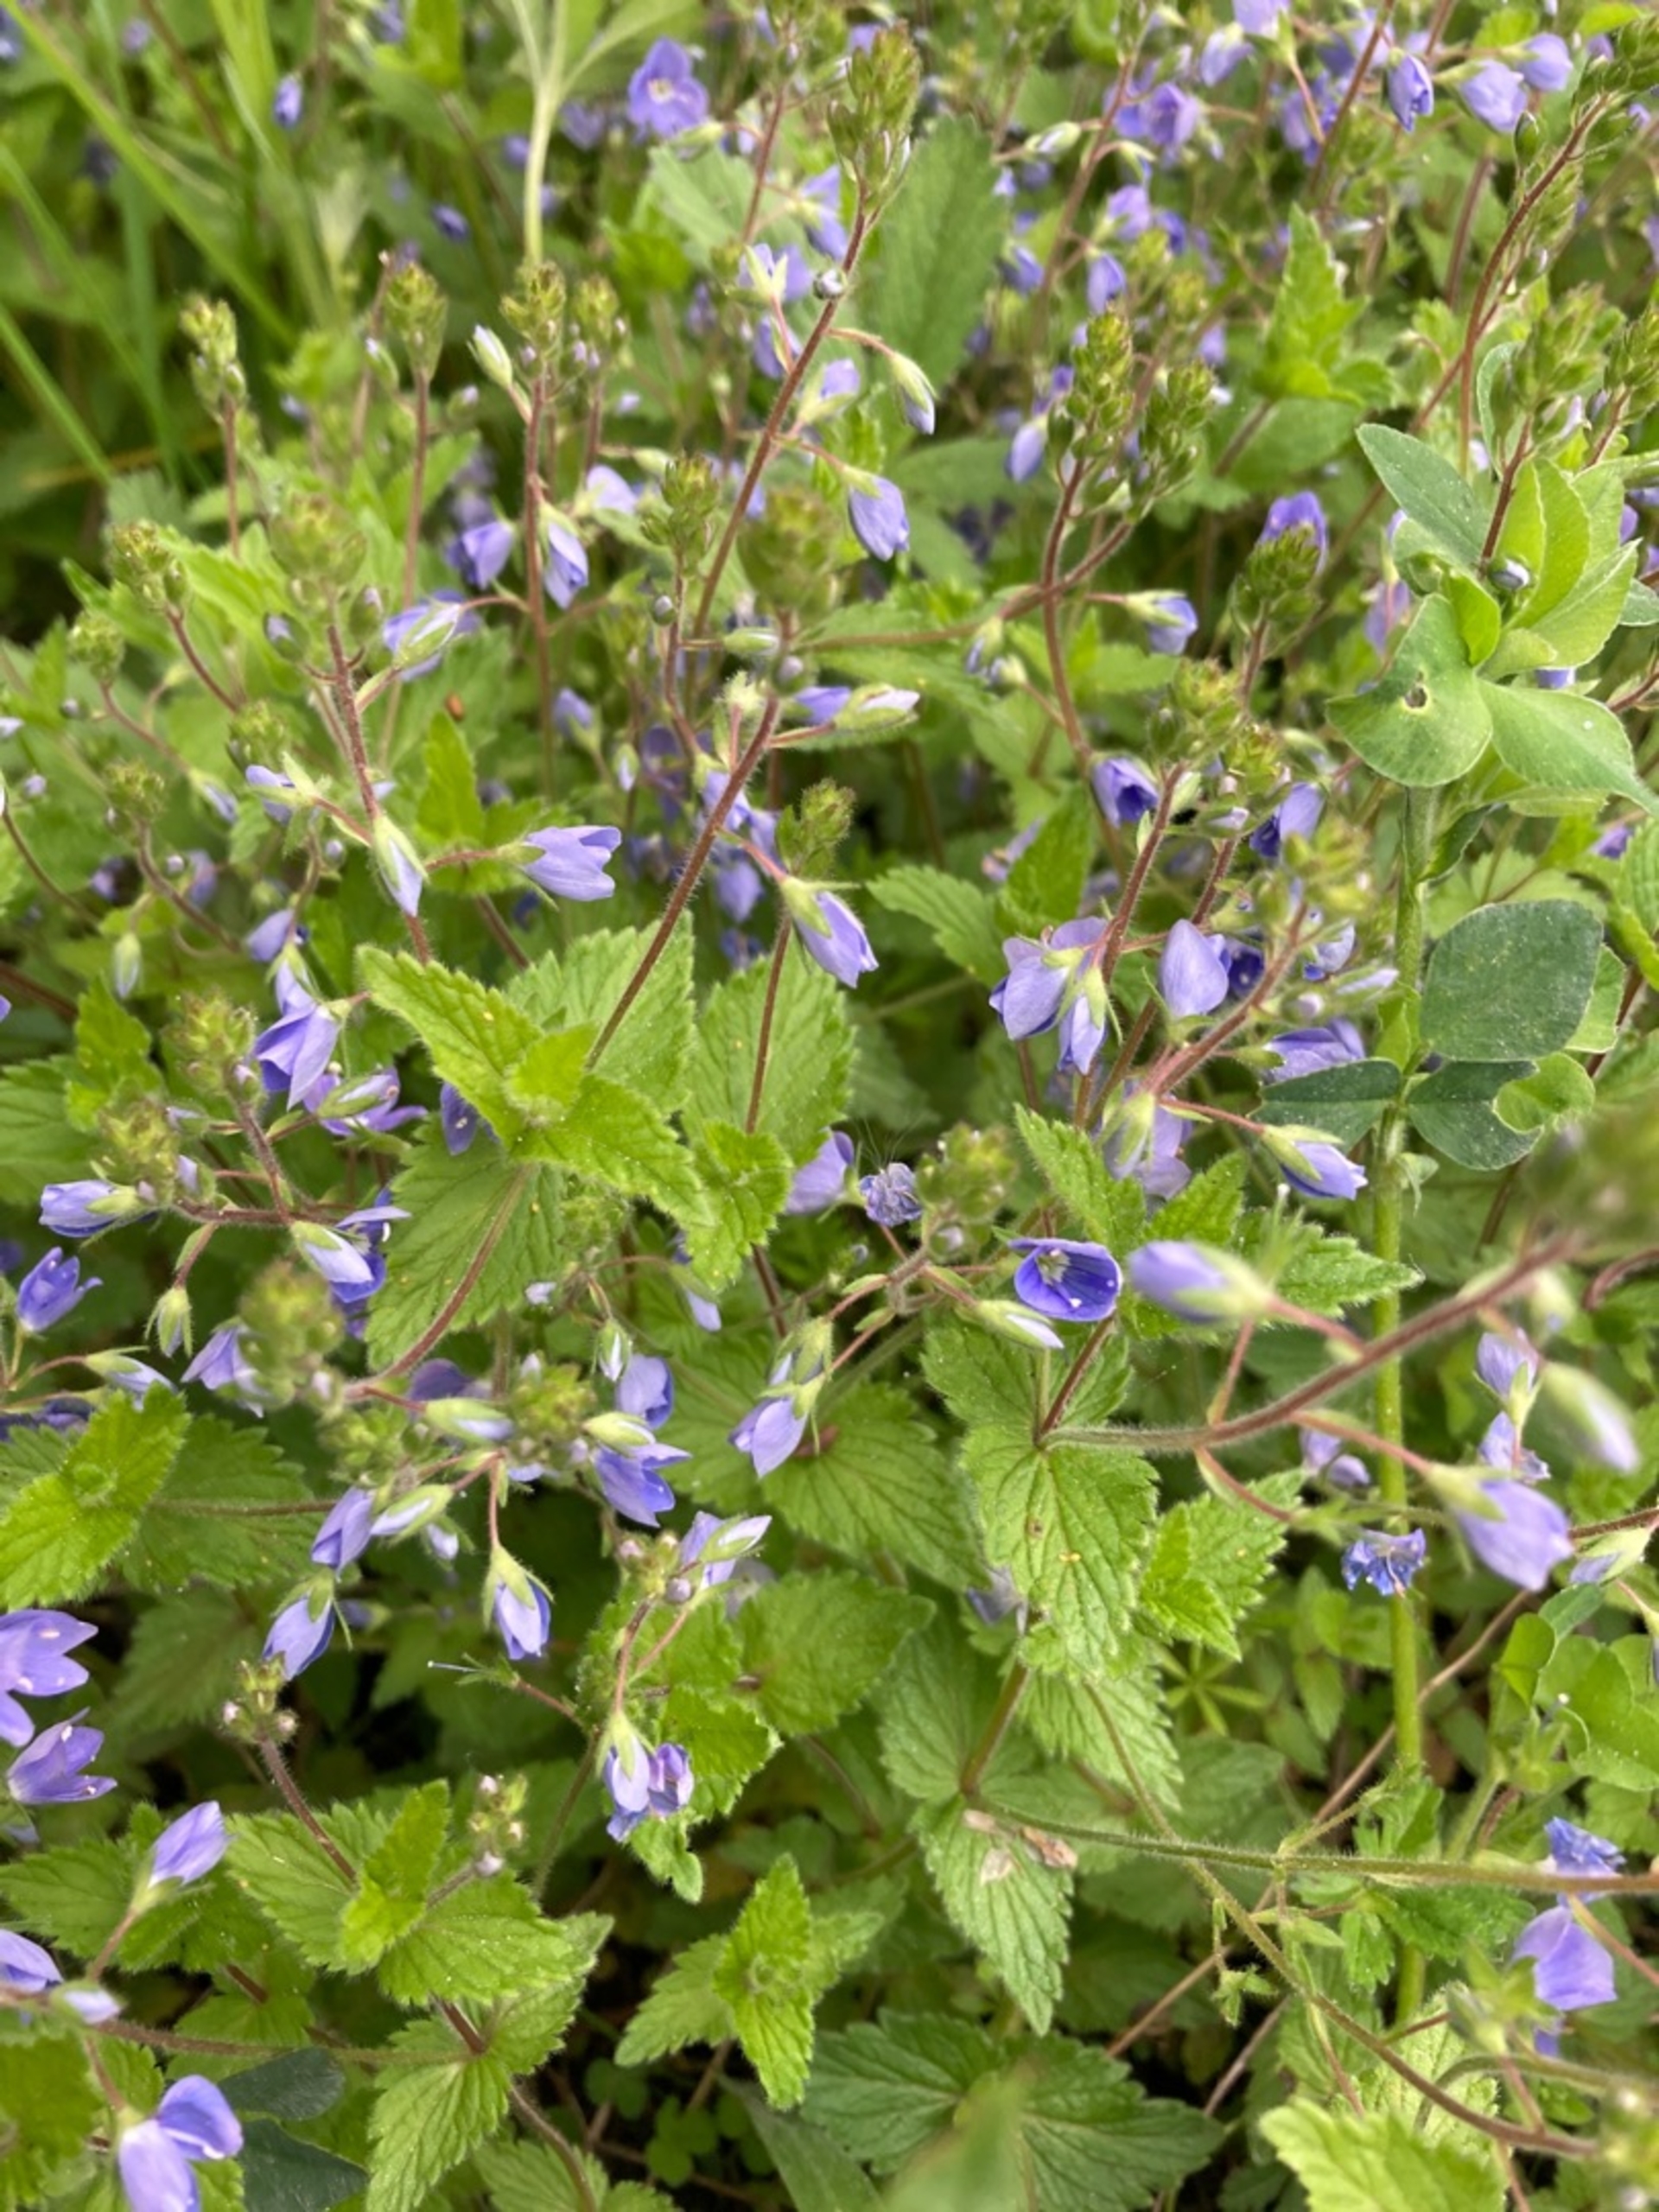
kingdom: Plantae
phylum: Tracheophyta
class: Magnoliopsida
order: Lamiales
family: Plantaginaceae
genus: Veronica
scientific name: Veronica chamaedrys
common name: Tveskægget ærenpris
